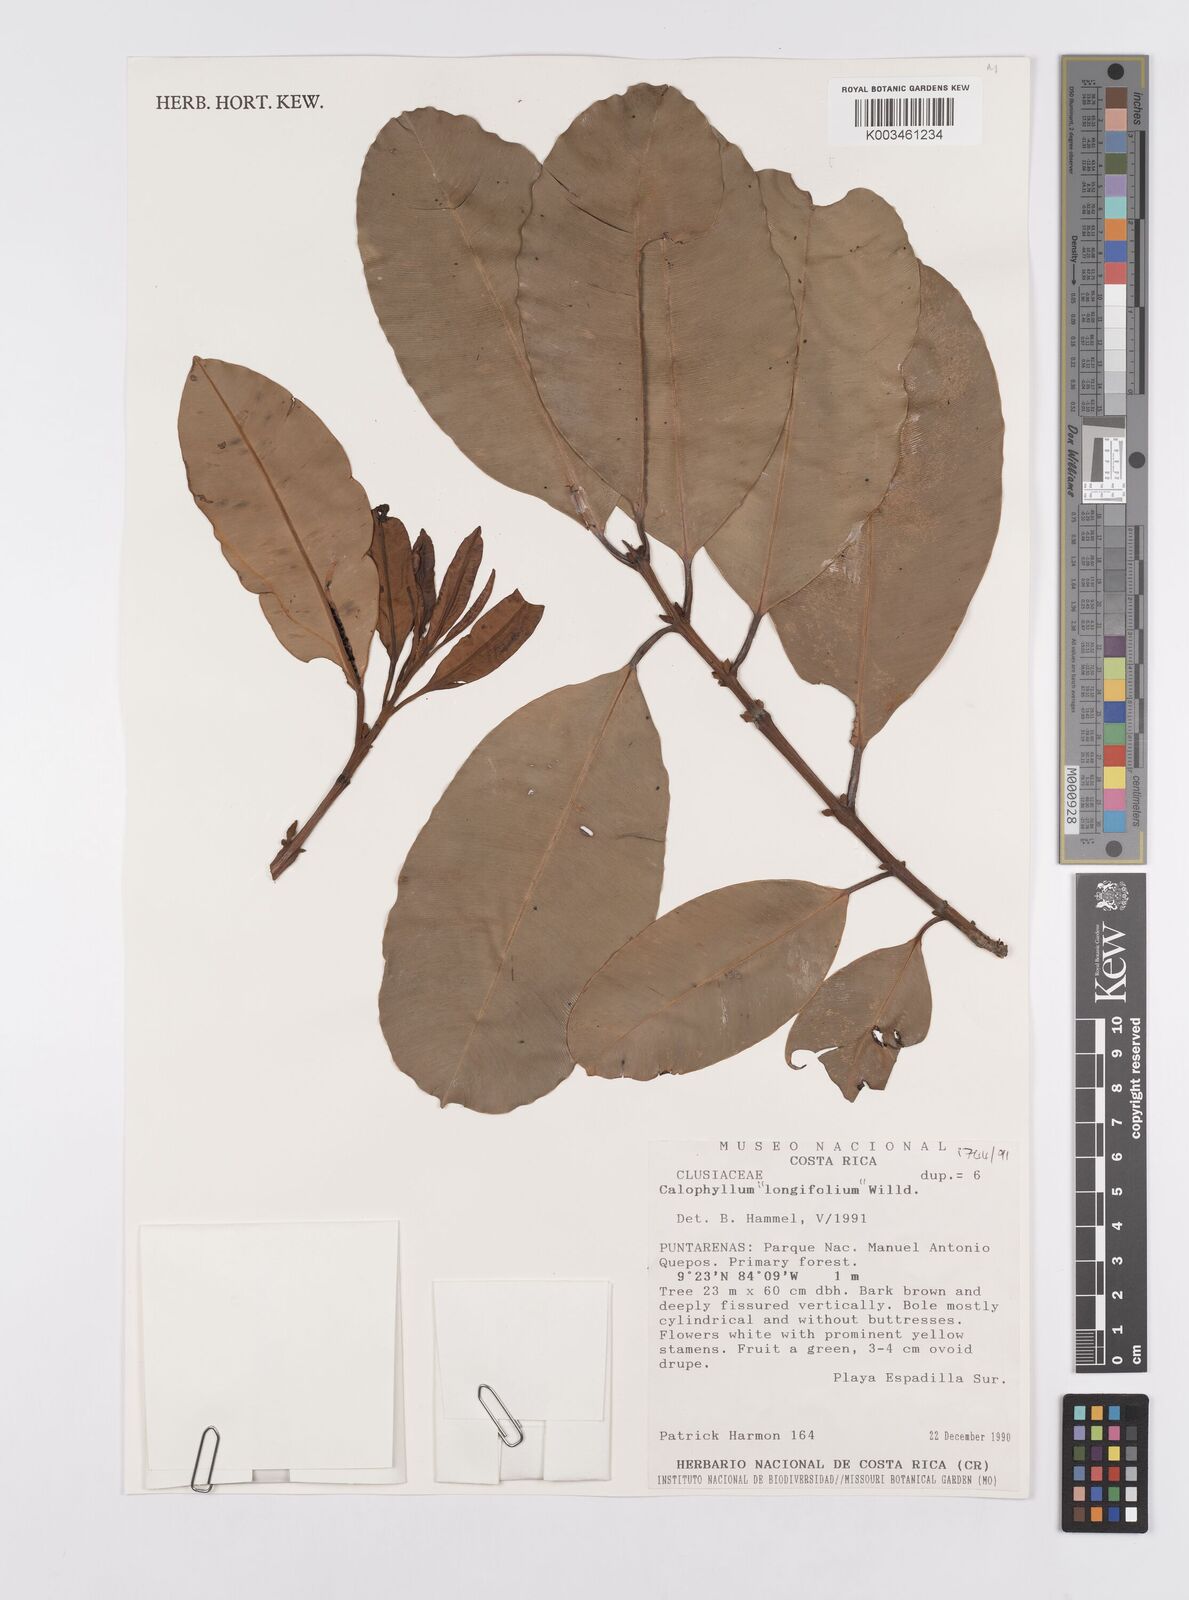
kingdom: Plantae
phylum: Tracheophyta
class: Magnoliopsida
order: Malpighiales
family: Calophyllaceae
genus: Calophyllum
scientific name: Calophyllum longifolium
